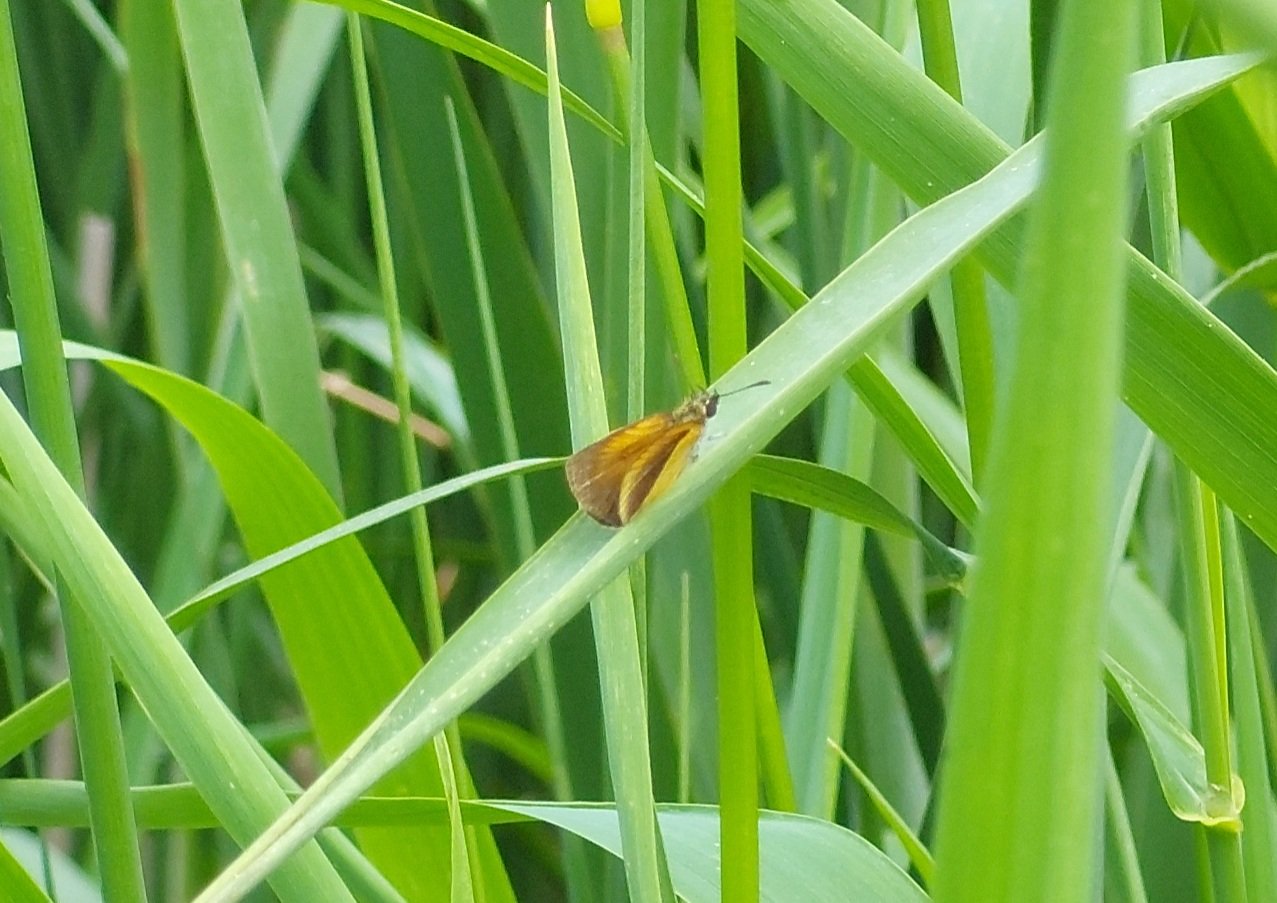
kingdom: Animalia
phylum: Arthropoda
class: Insecta
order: Lepidoptera
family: Hesperiidae
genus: Ancyloxypha
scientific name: Ancyloxypha numitor
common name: Least Skipper
